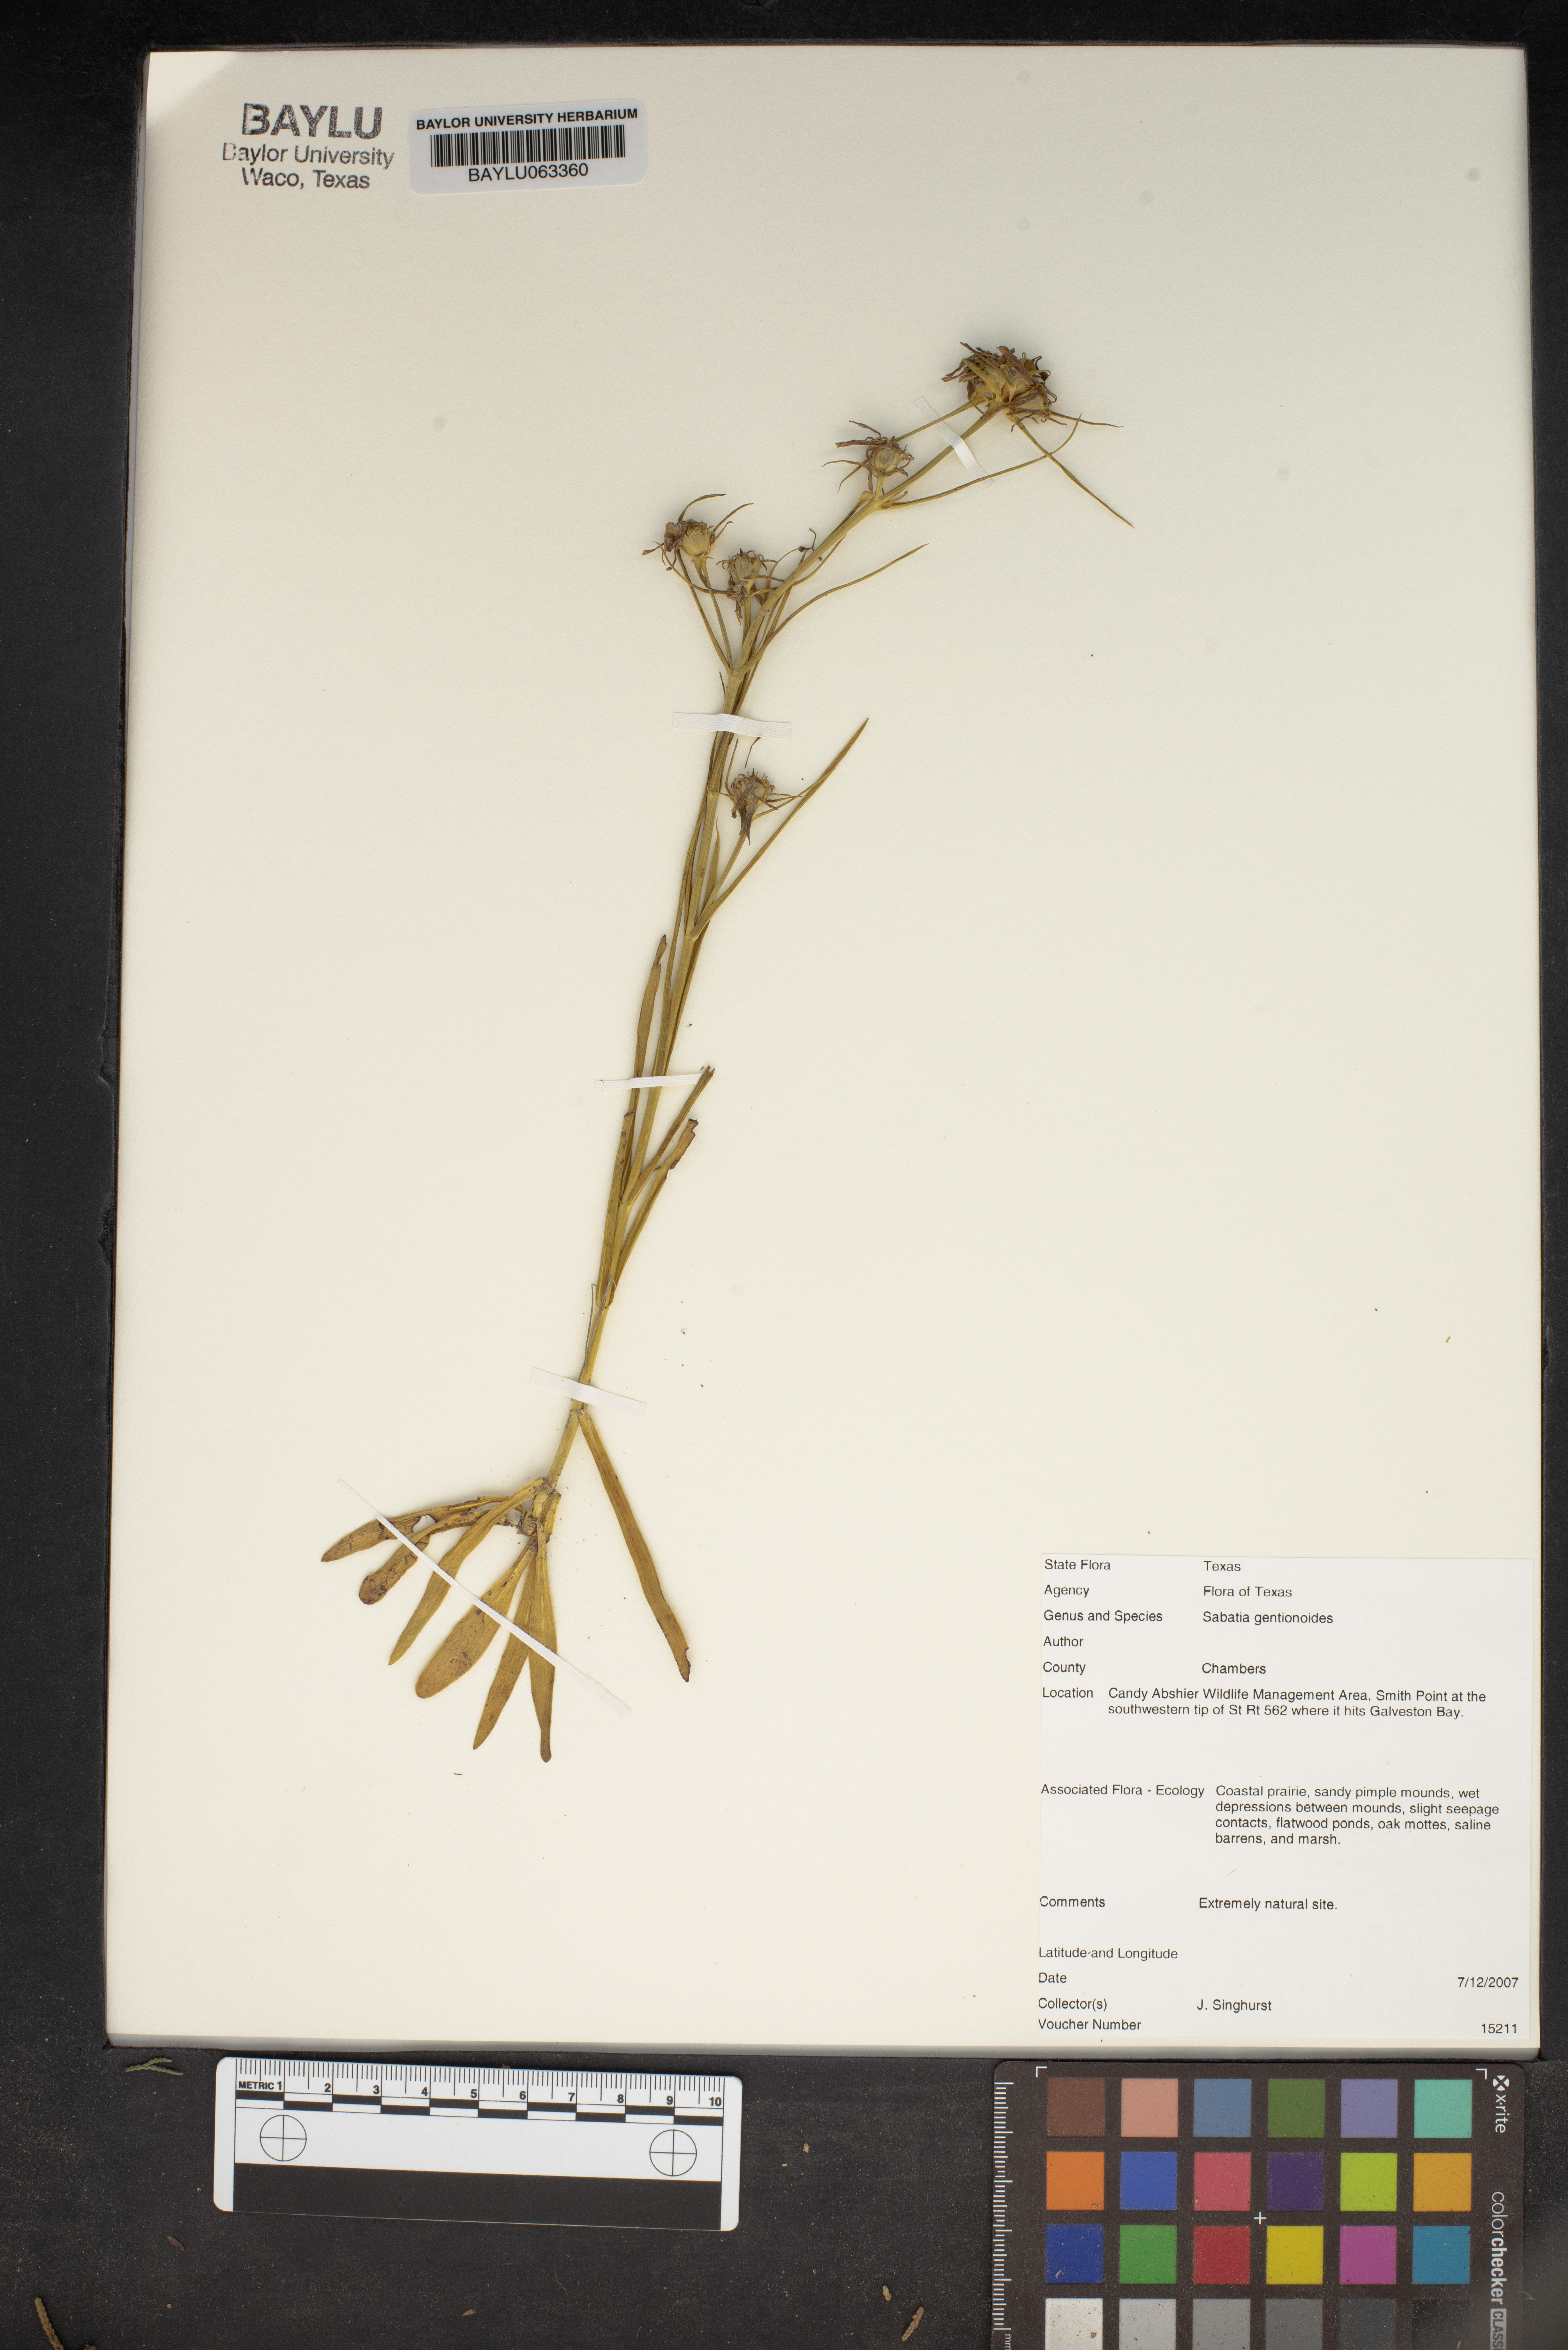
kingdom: Plantae
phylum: Tracheophyta
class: Magnoliopsida
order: Gentianales
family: Gentianaceae
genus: Sabatia
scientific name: Sabatia gentianoides
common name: Pinewoods rose-gentian
